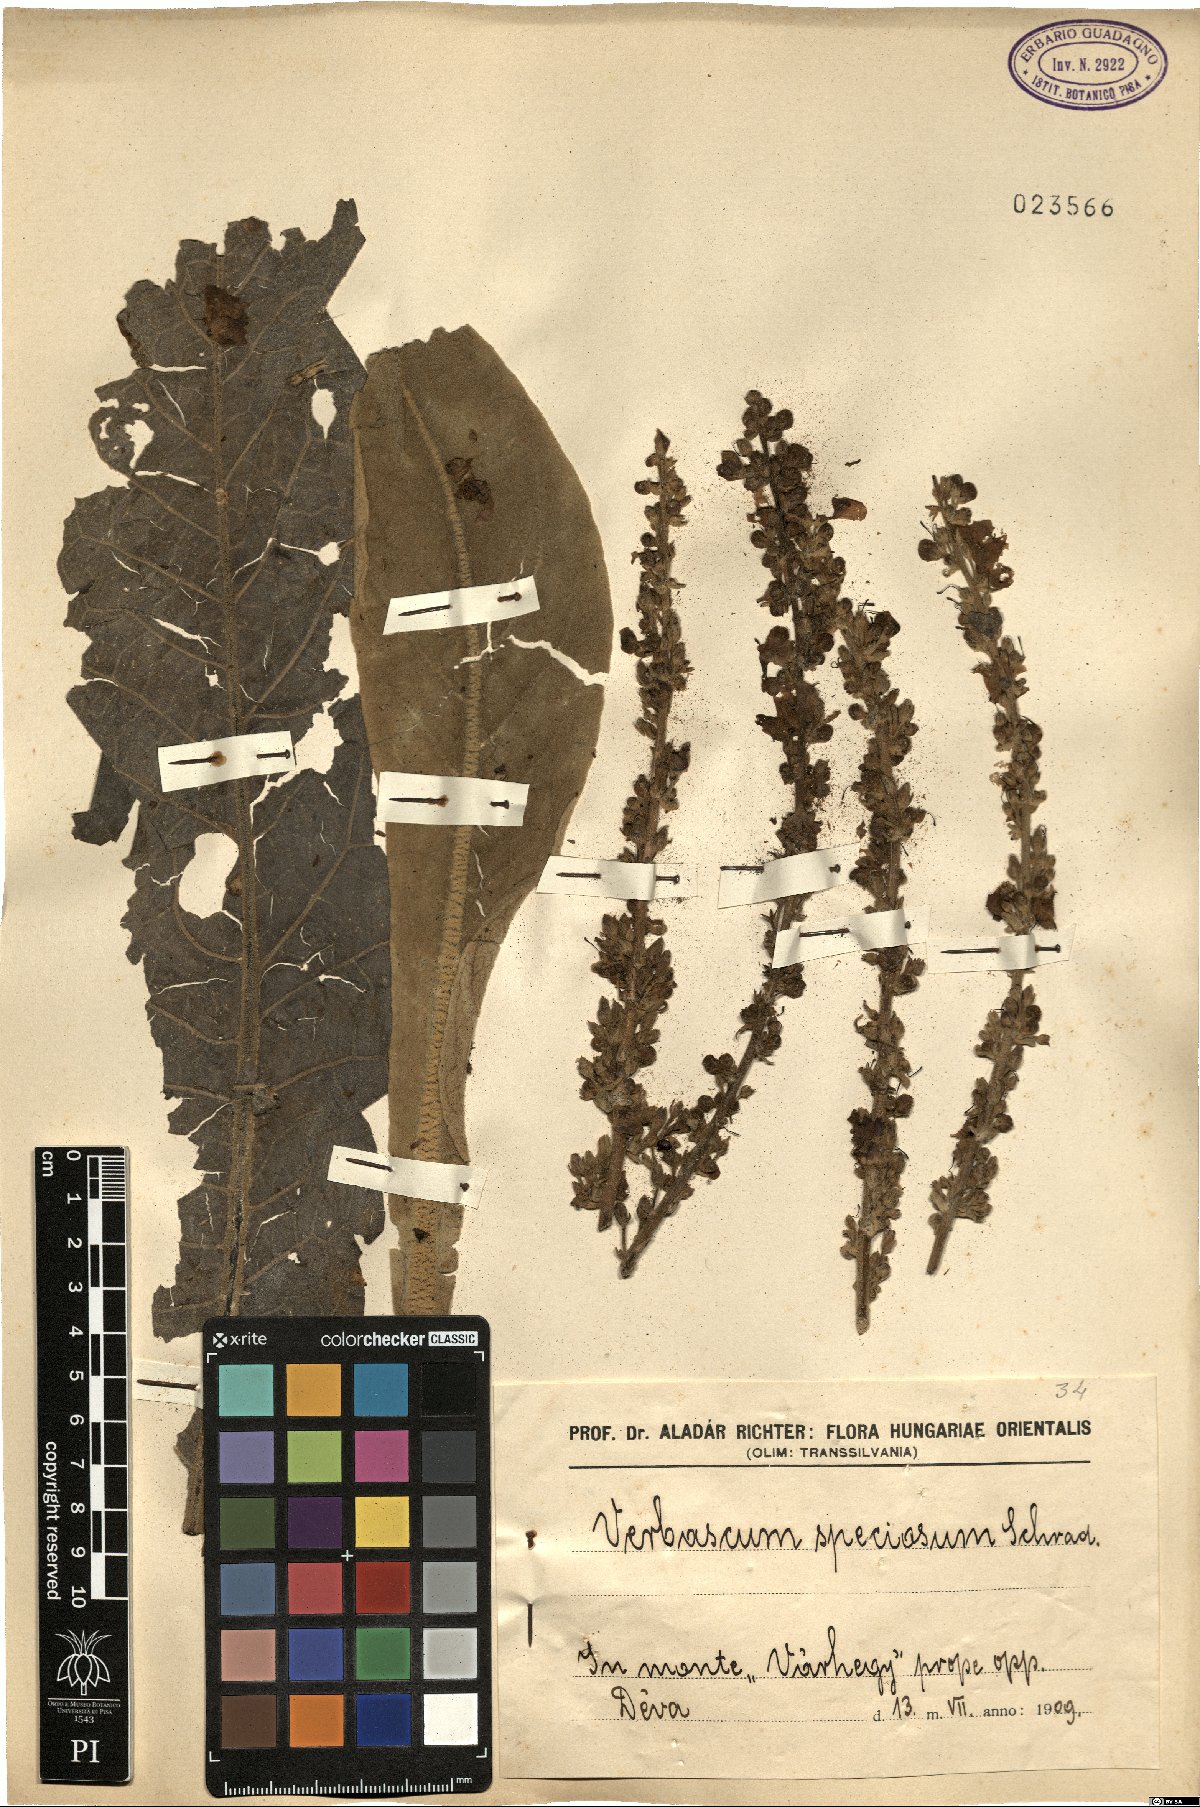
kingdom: Plantae
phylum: Tracheophyta
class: Magnoliopsida
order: Lamiales
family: Scrophulariaceae
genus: Verbascum
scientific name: Verbascum speciosum
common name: Hungarian mullein
